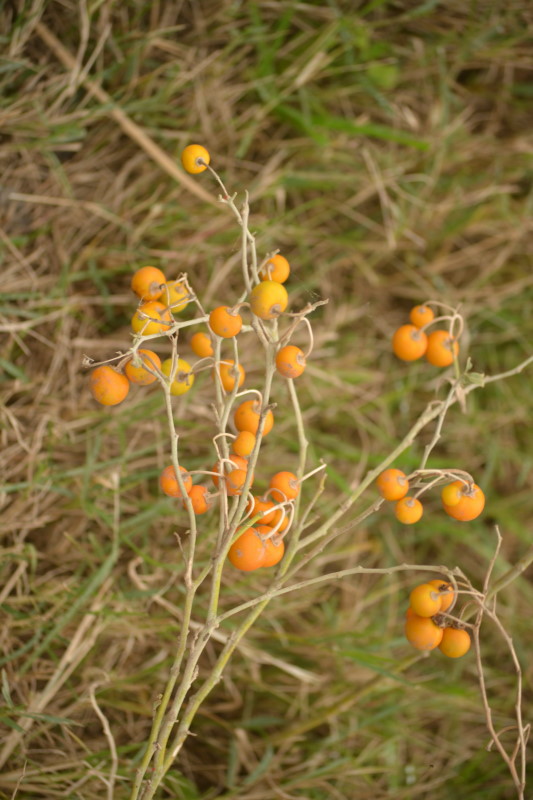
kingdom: Plantae
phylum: Tracheophyta
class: Magnoliopsida
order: Solanales
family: Solanaceae
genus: Solanum
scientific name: Solanum elaeagnifolium
